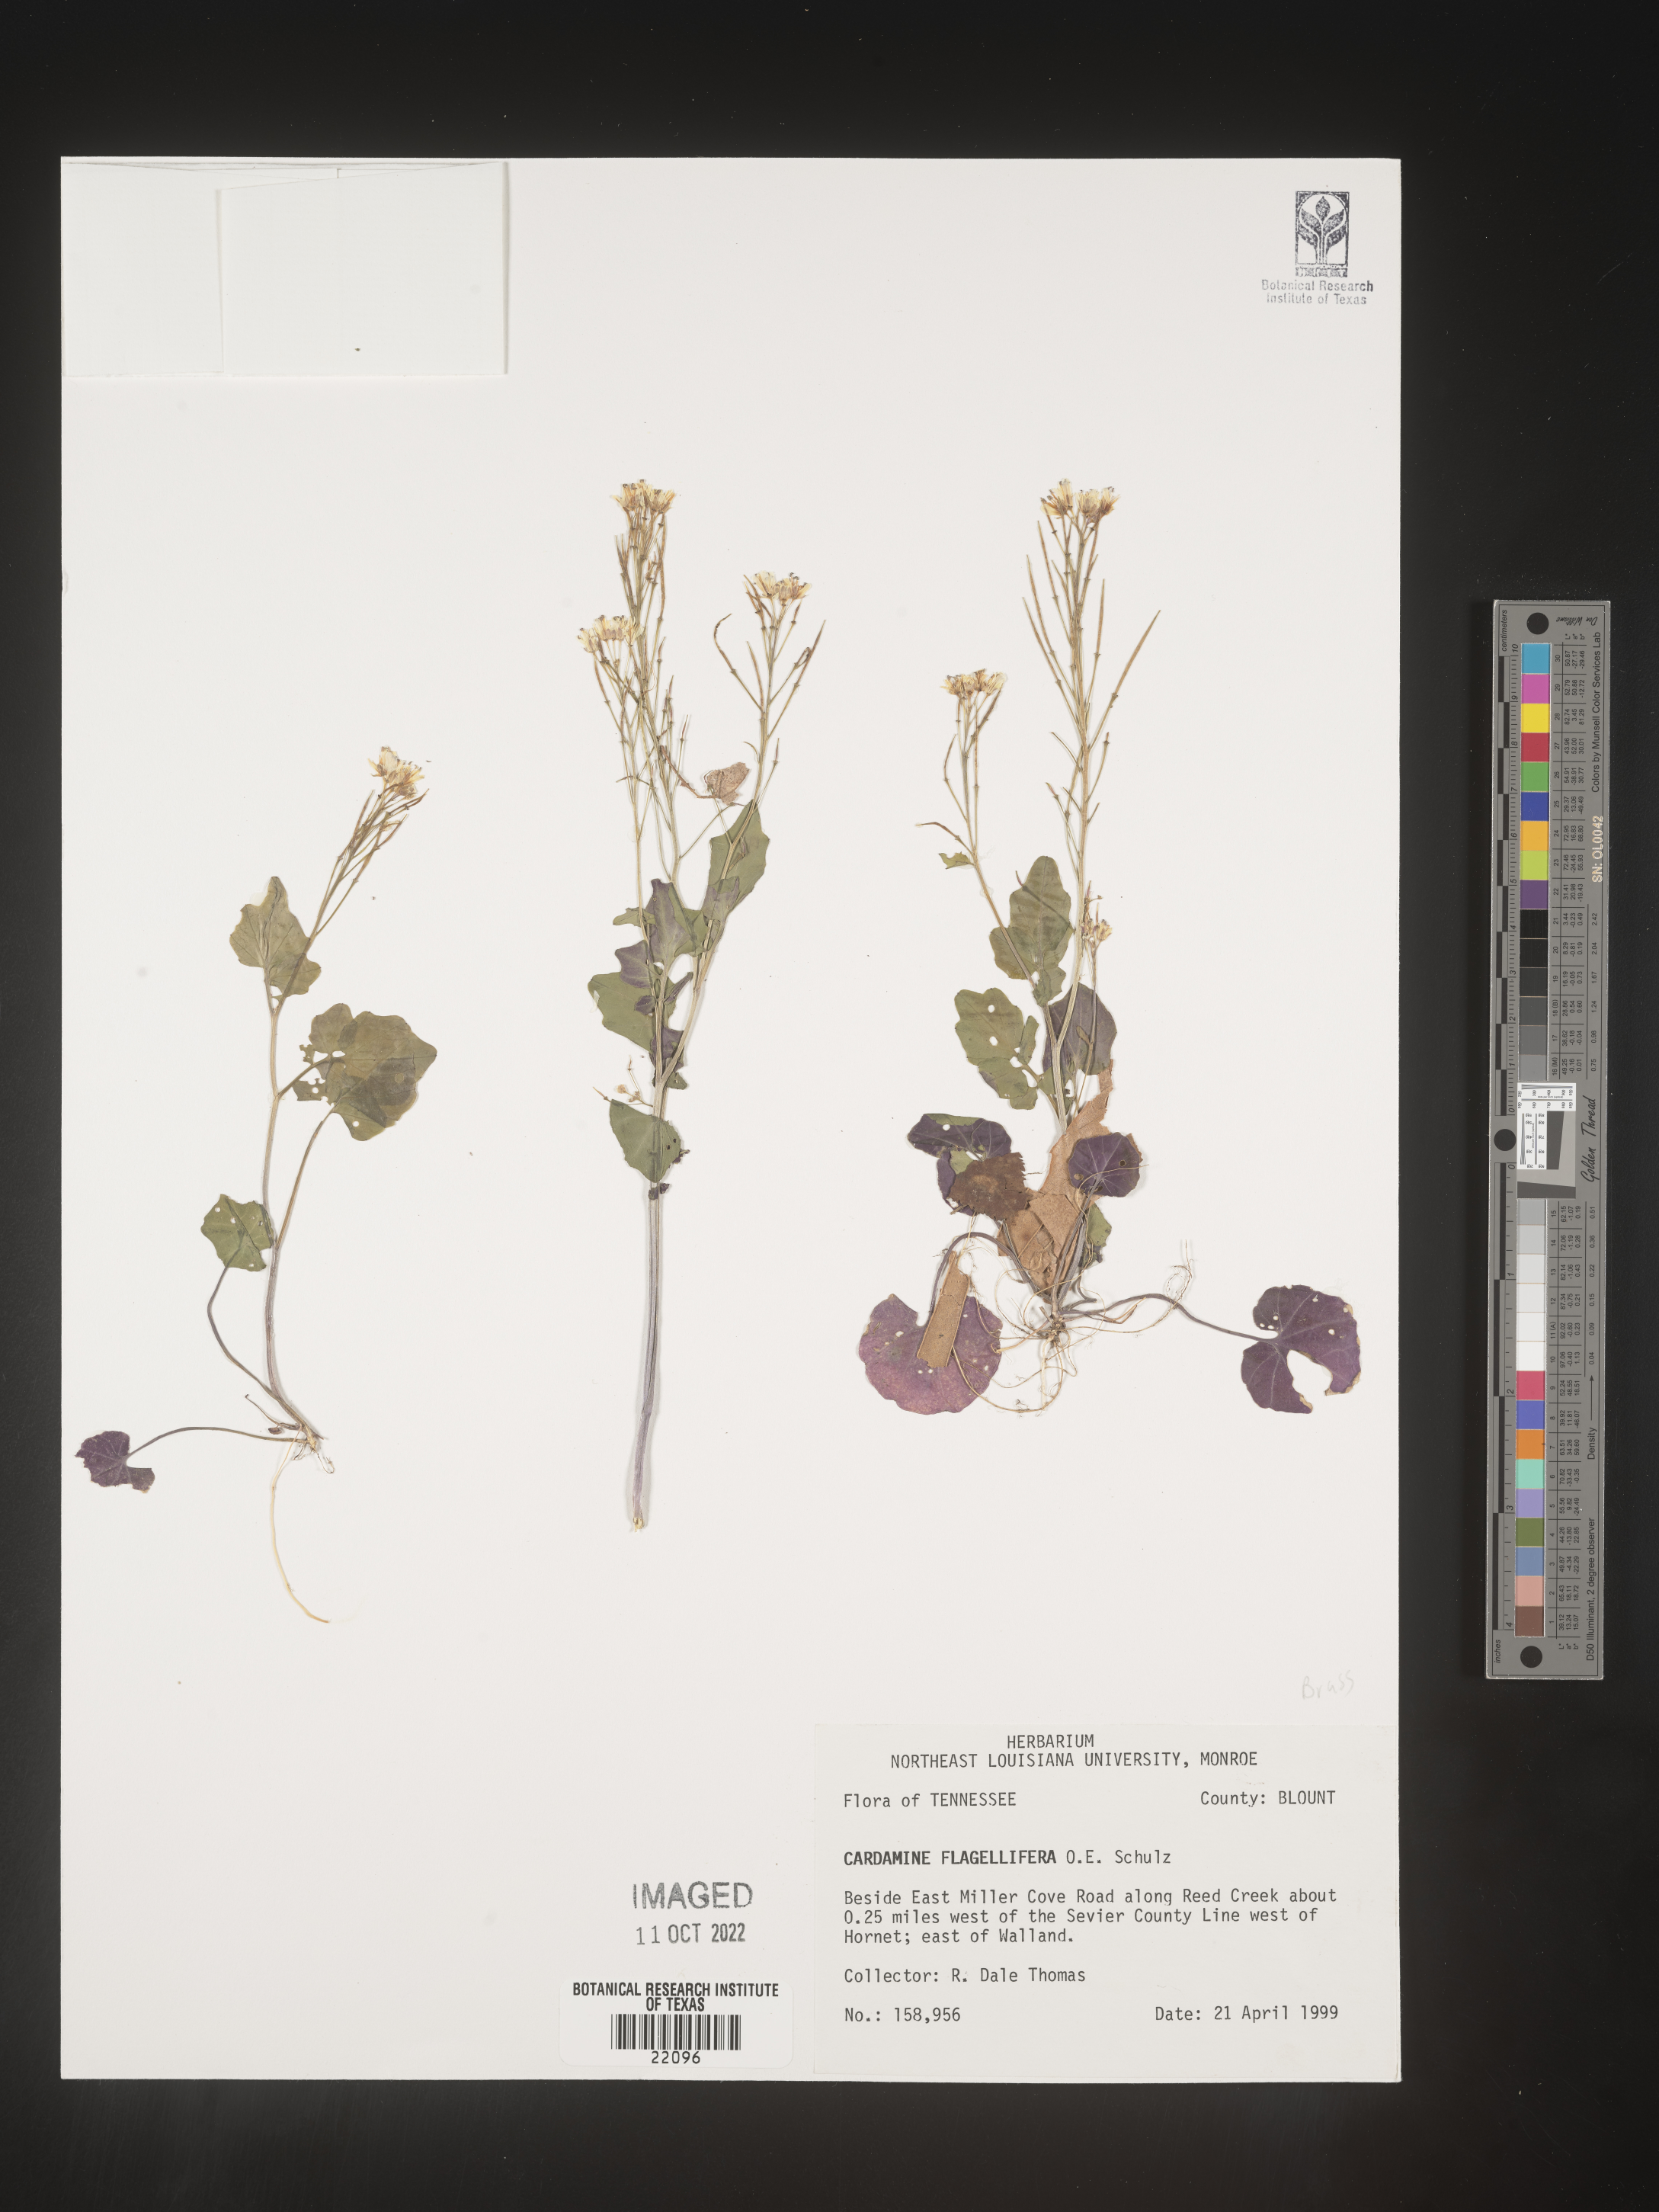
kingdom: Plantae
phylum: Tracheophyta
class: Magnoliopsida
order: Brassicales
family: Brassicaceae
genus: Cardamine
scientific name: Cardamine
